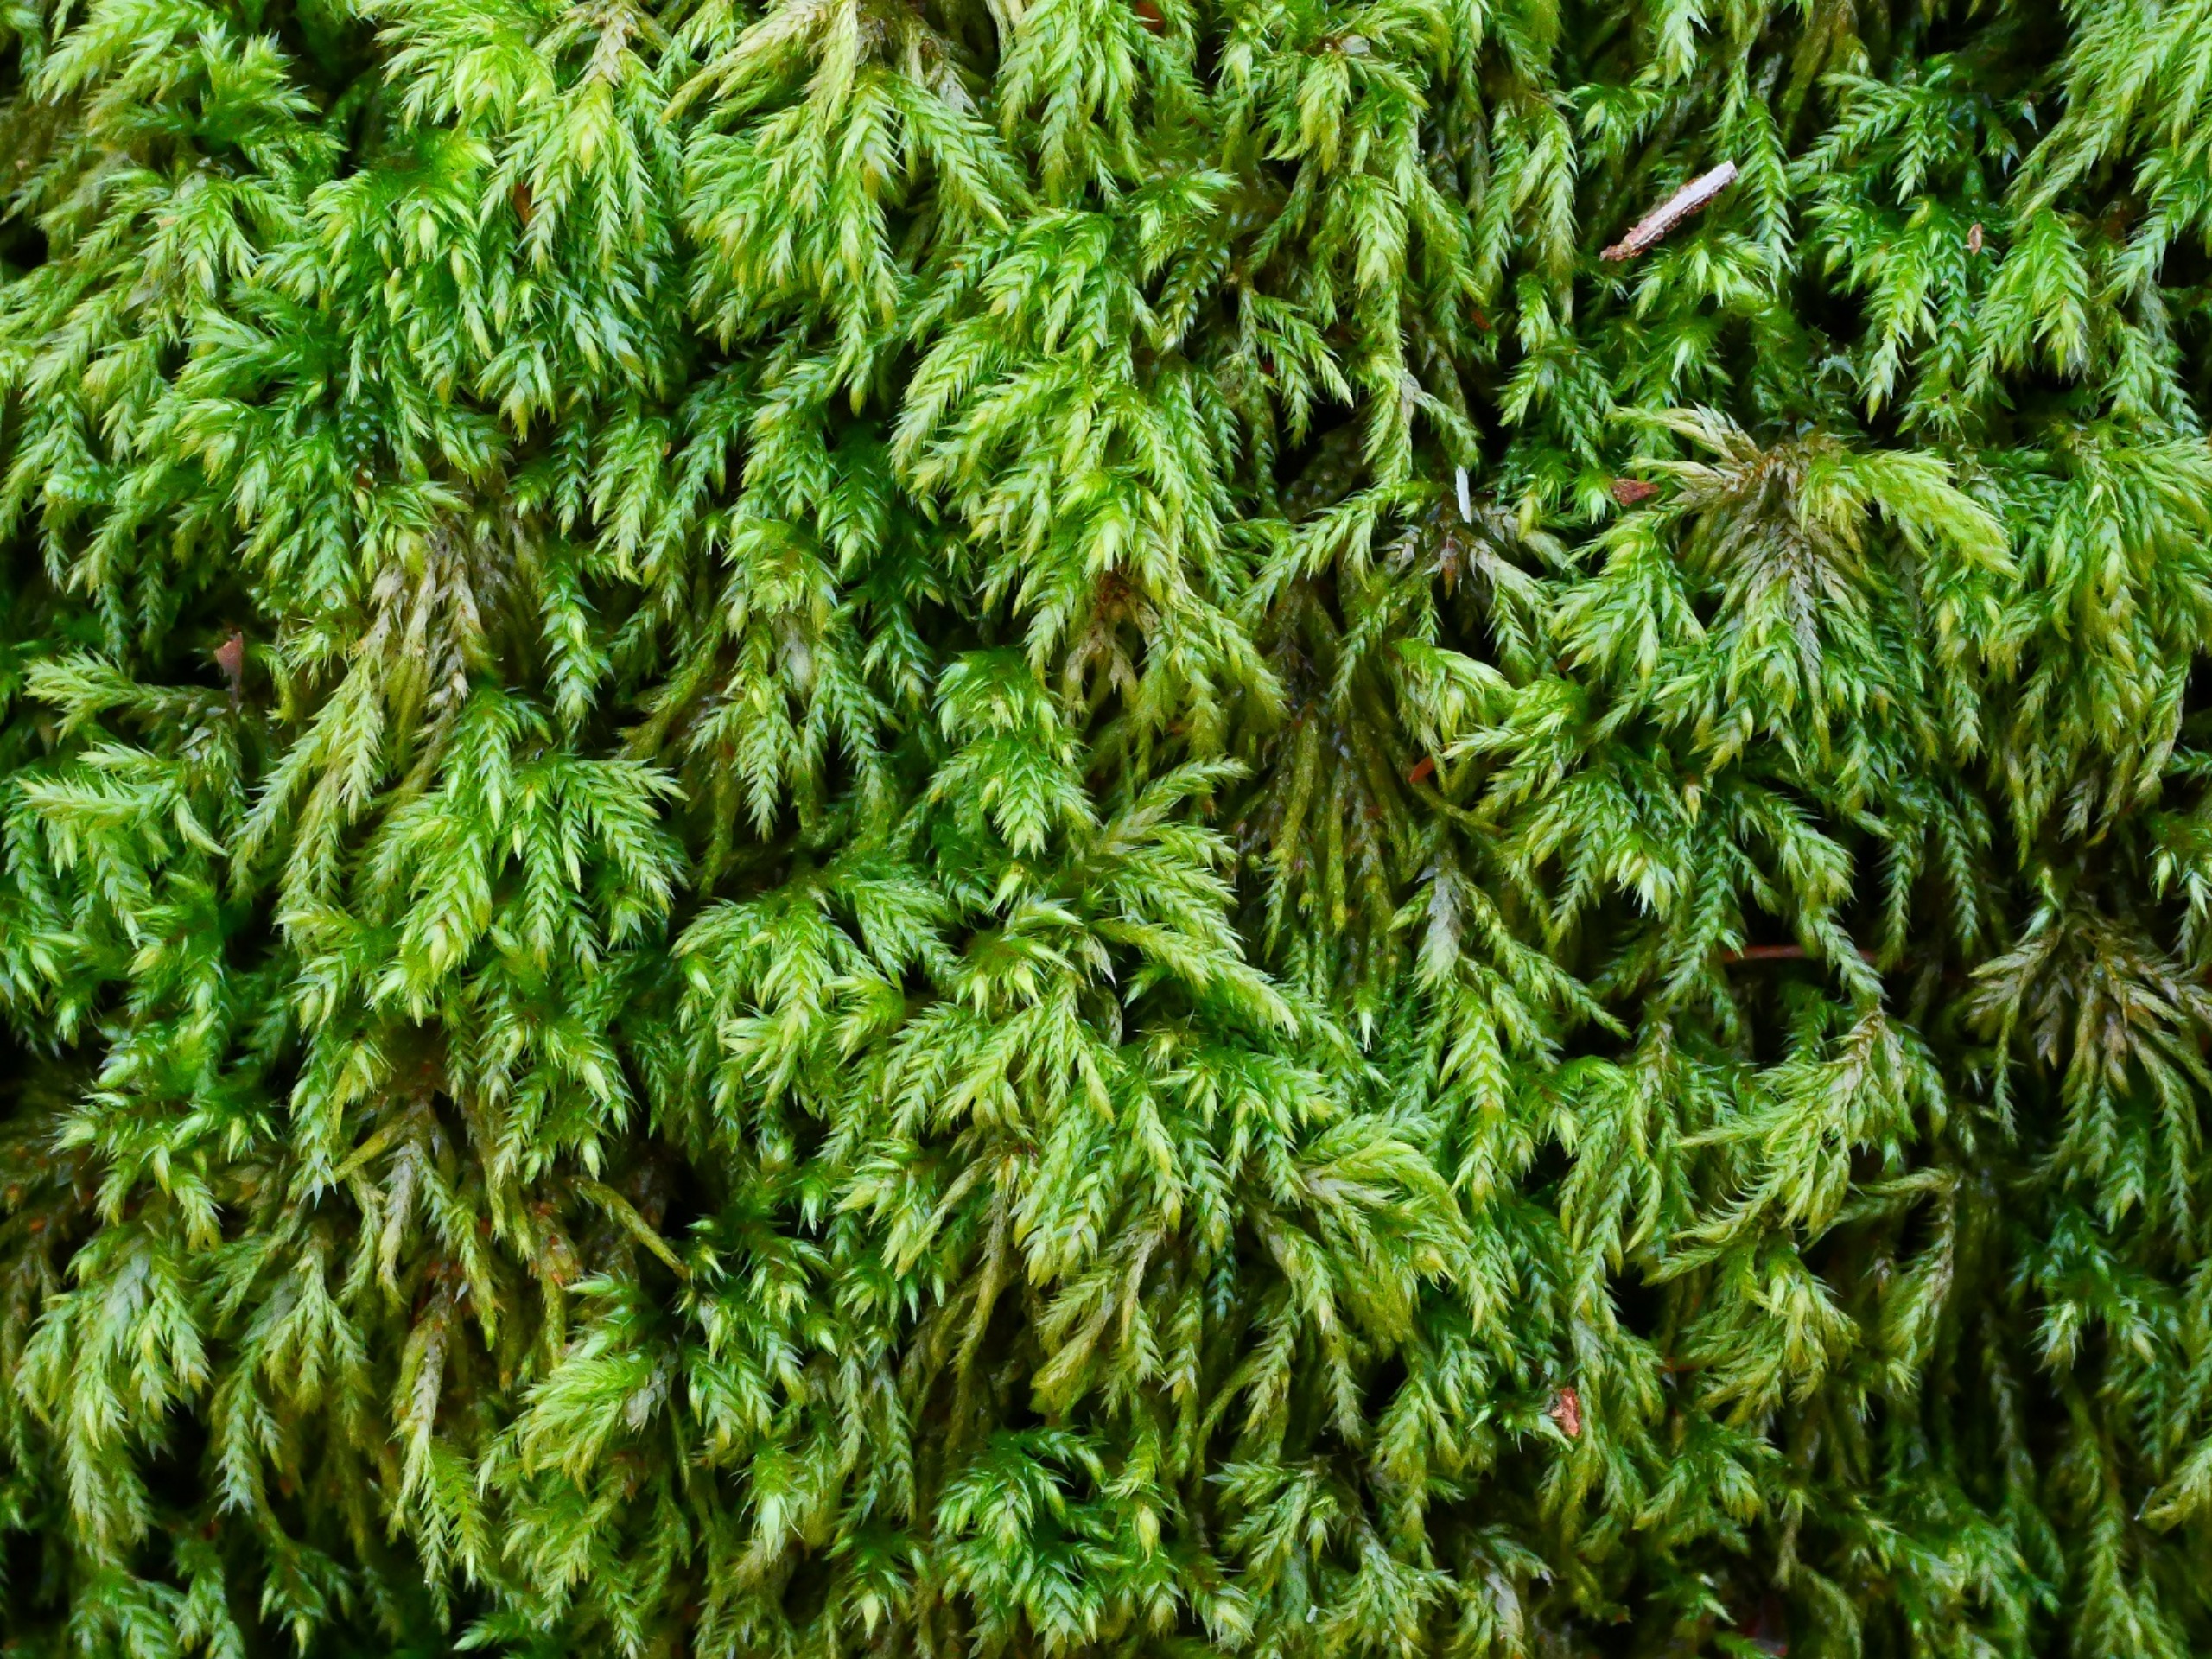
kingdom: Plantae
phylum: Bryophyta
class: Bryopsida
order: Hypnales
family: Lembophyllaceae
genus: Pseudisothecium
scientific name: Pseudisothecium myosuroides
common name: Slank stammemos
